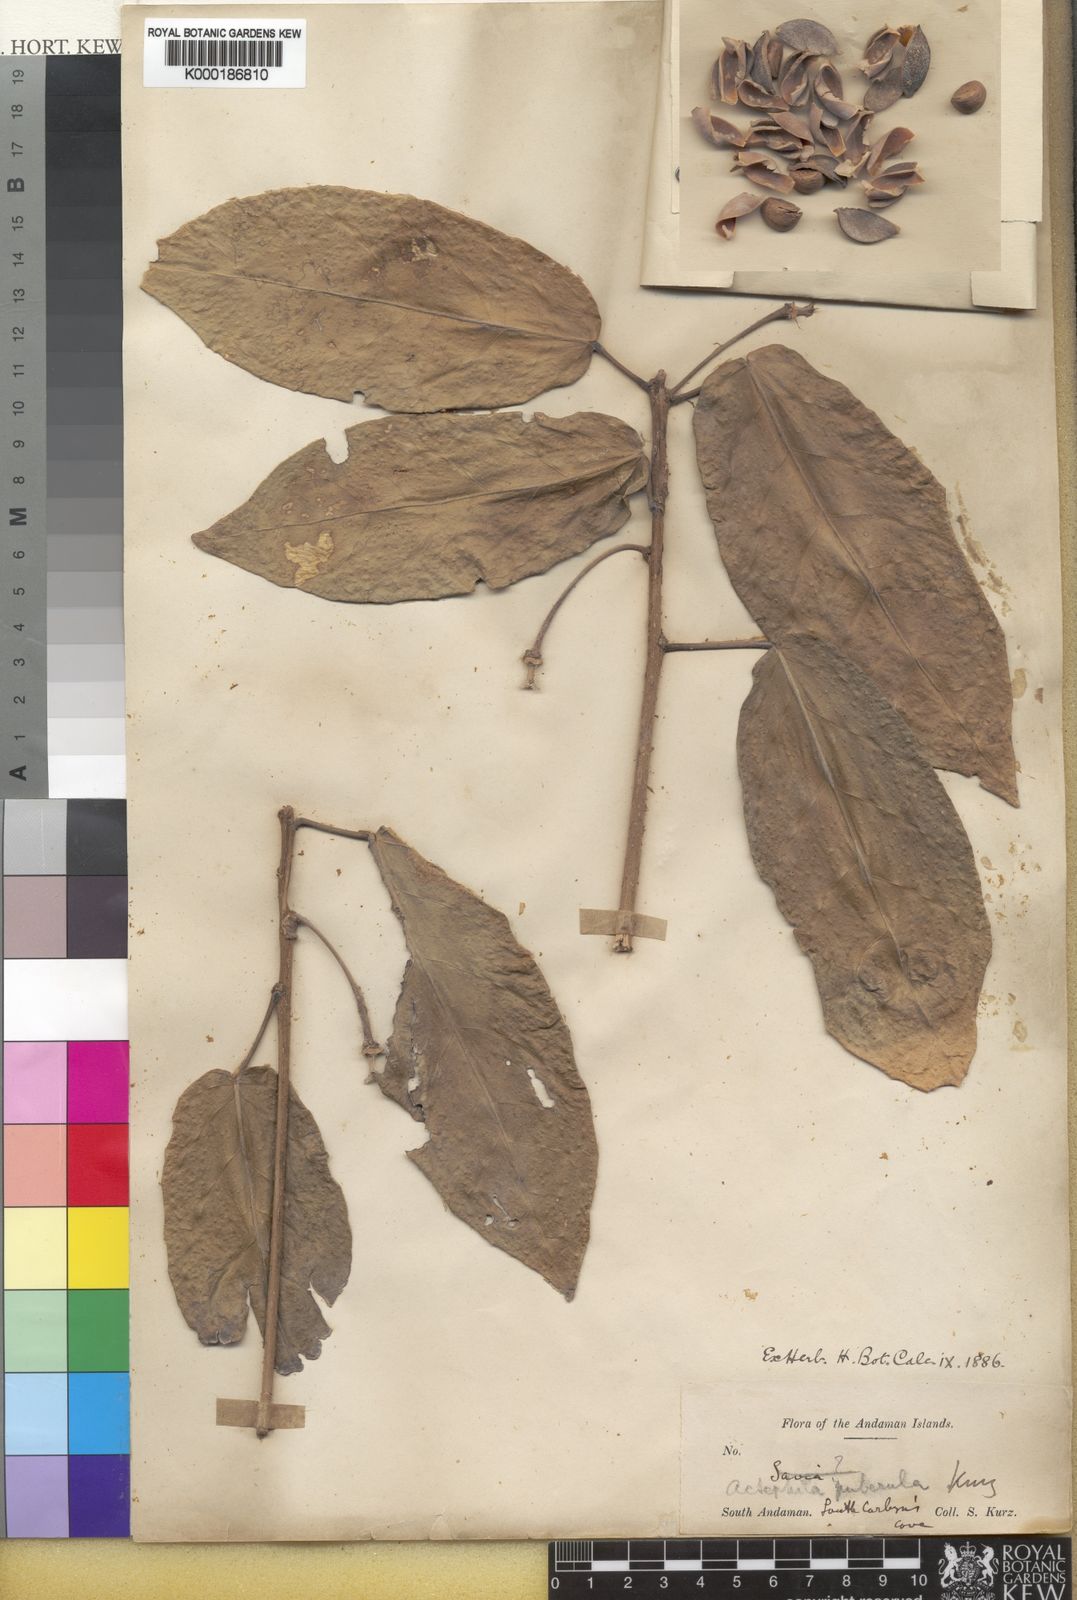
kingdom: Plantae
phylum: Tracheophyta
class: Magnoliopsida
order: Malpighiales
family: Phyllanthaceae
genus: Actephila
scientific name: Actephila
